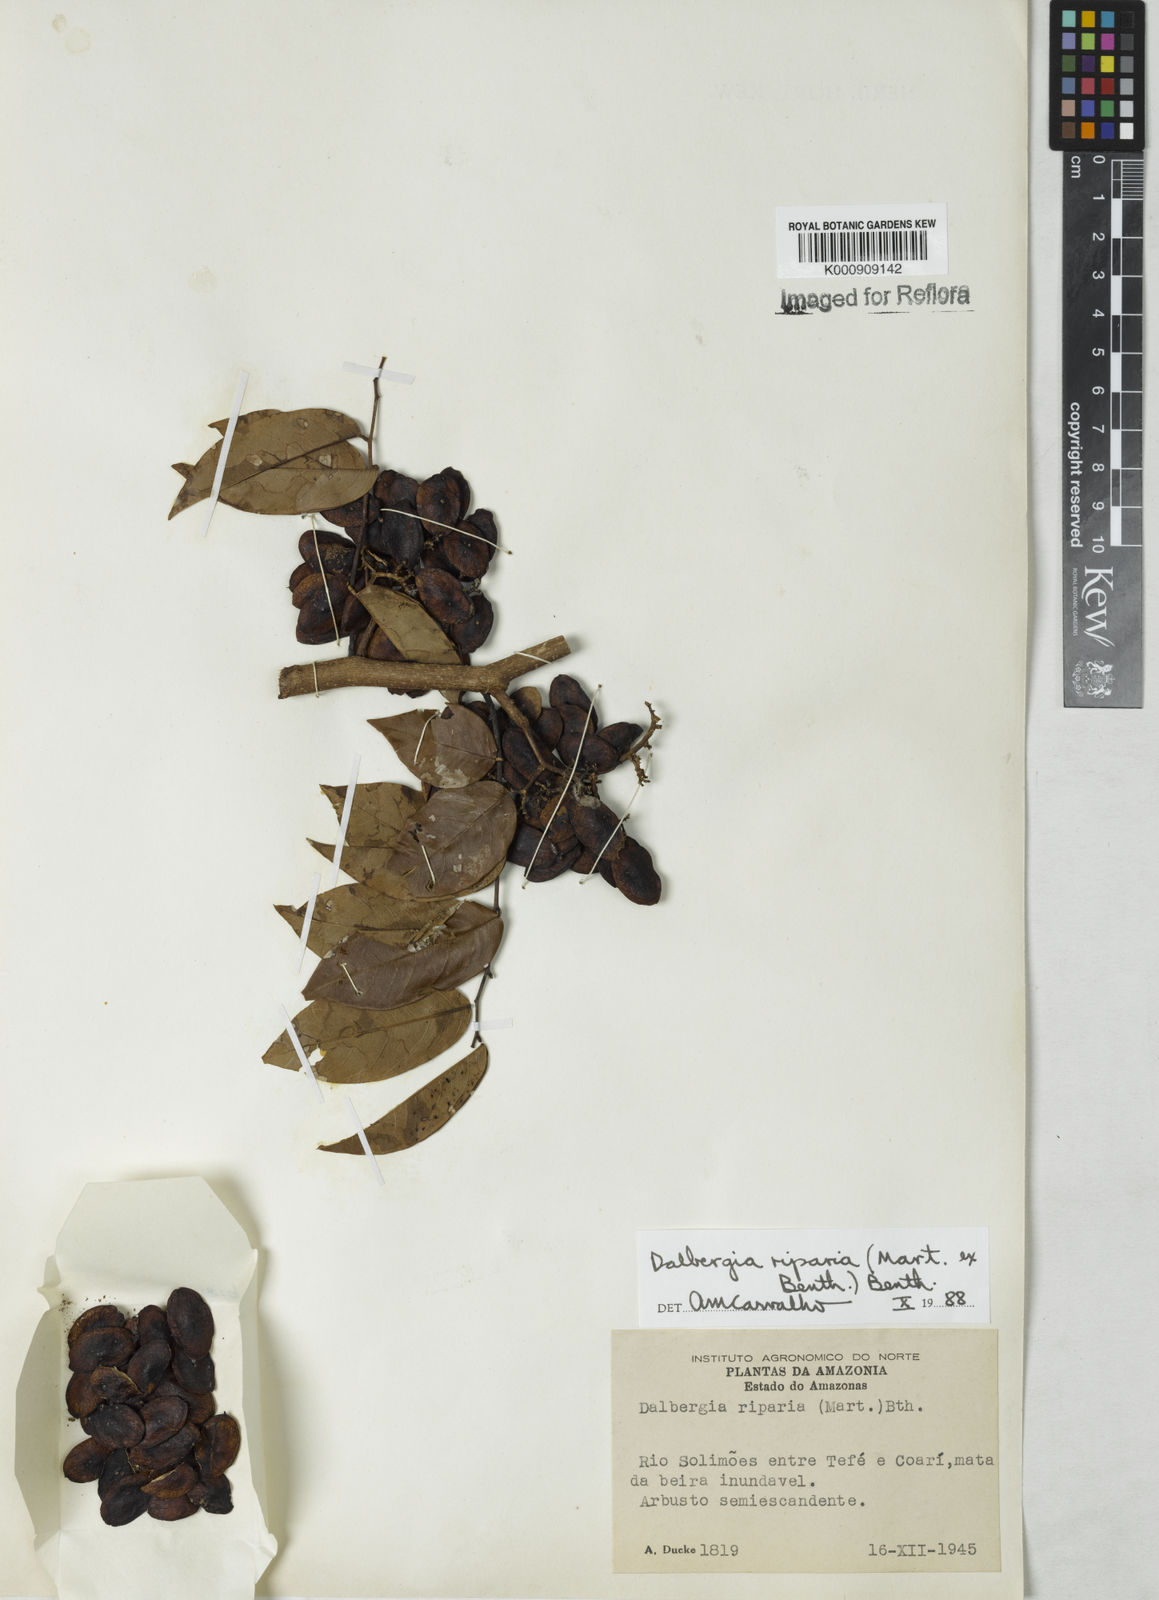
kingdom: Plantae
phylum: Tracheophyta
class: Magnoliopsida
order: Fabales
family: Fabaceae
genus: Dalbergia
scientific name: Dalbergia riparia
